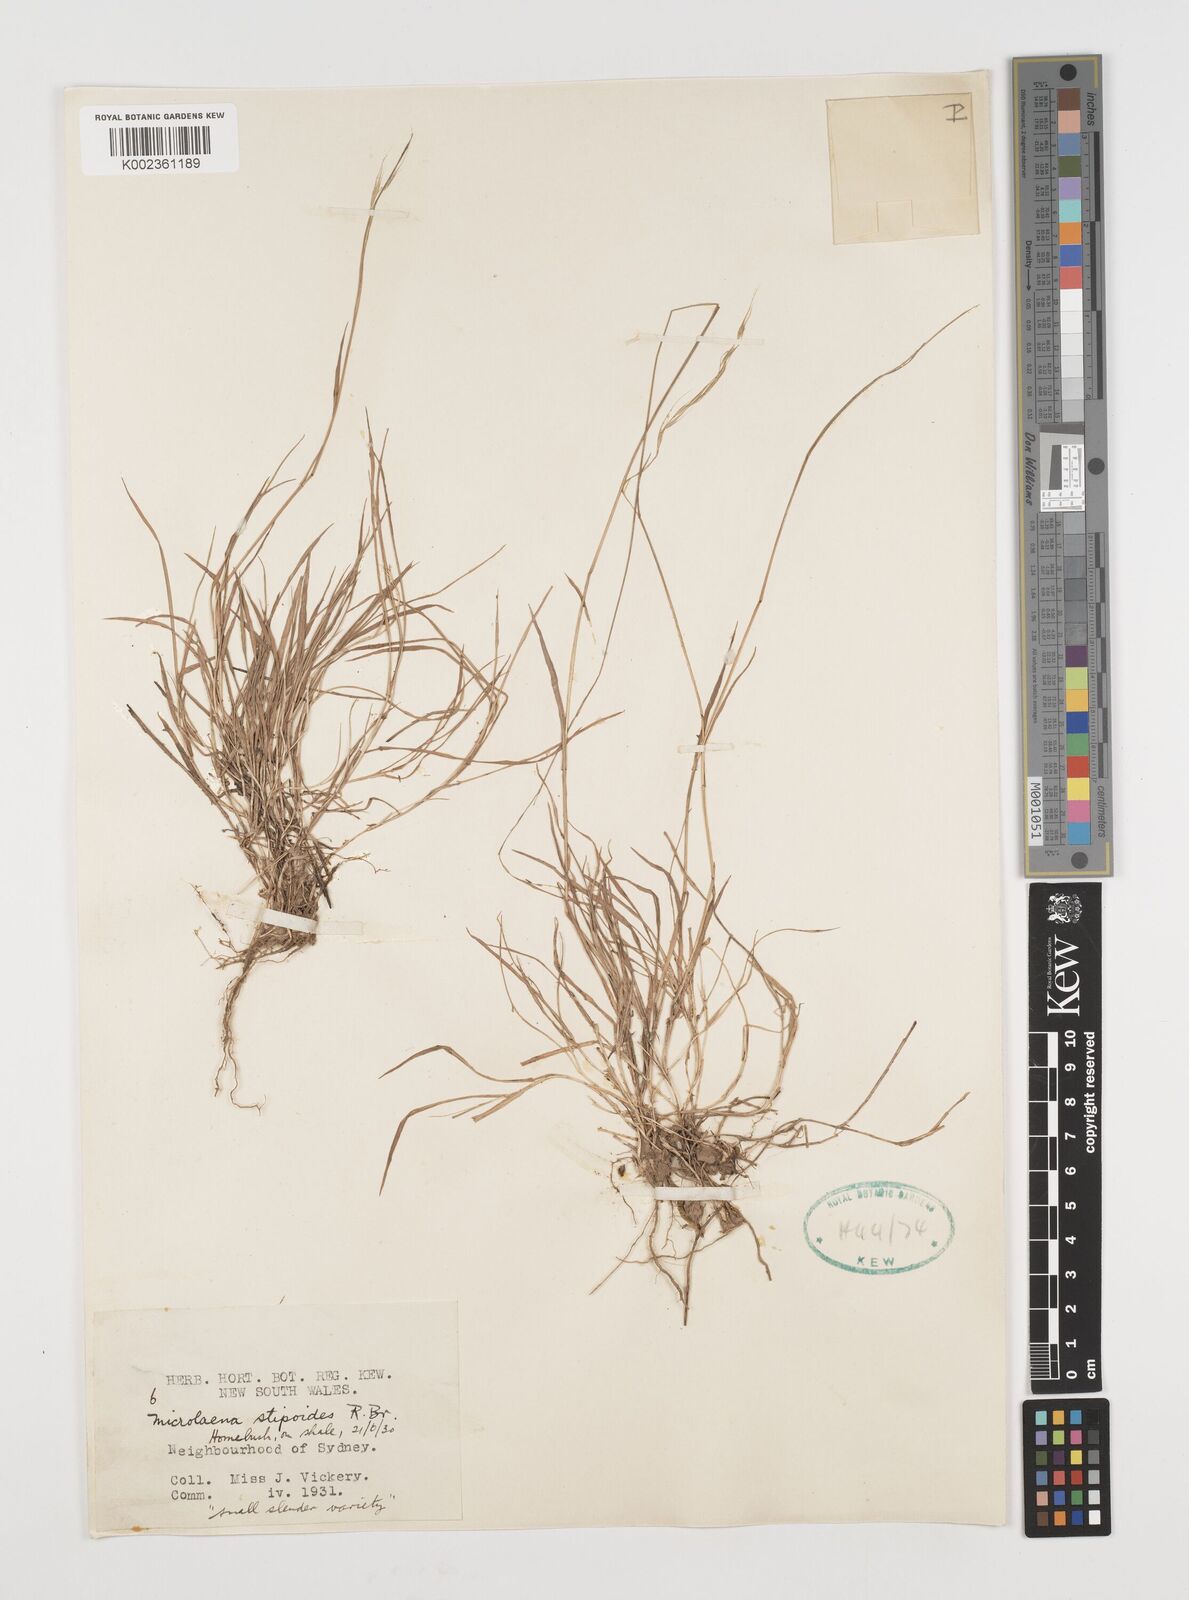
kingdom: Plantae
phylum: Tracheophyta
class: Liliopsida
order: Poales
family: Poaceae
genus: Microlaena
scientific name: Microlaena stipoides
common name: Meadow ricegrass
